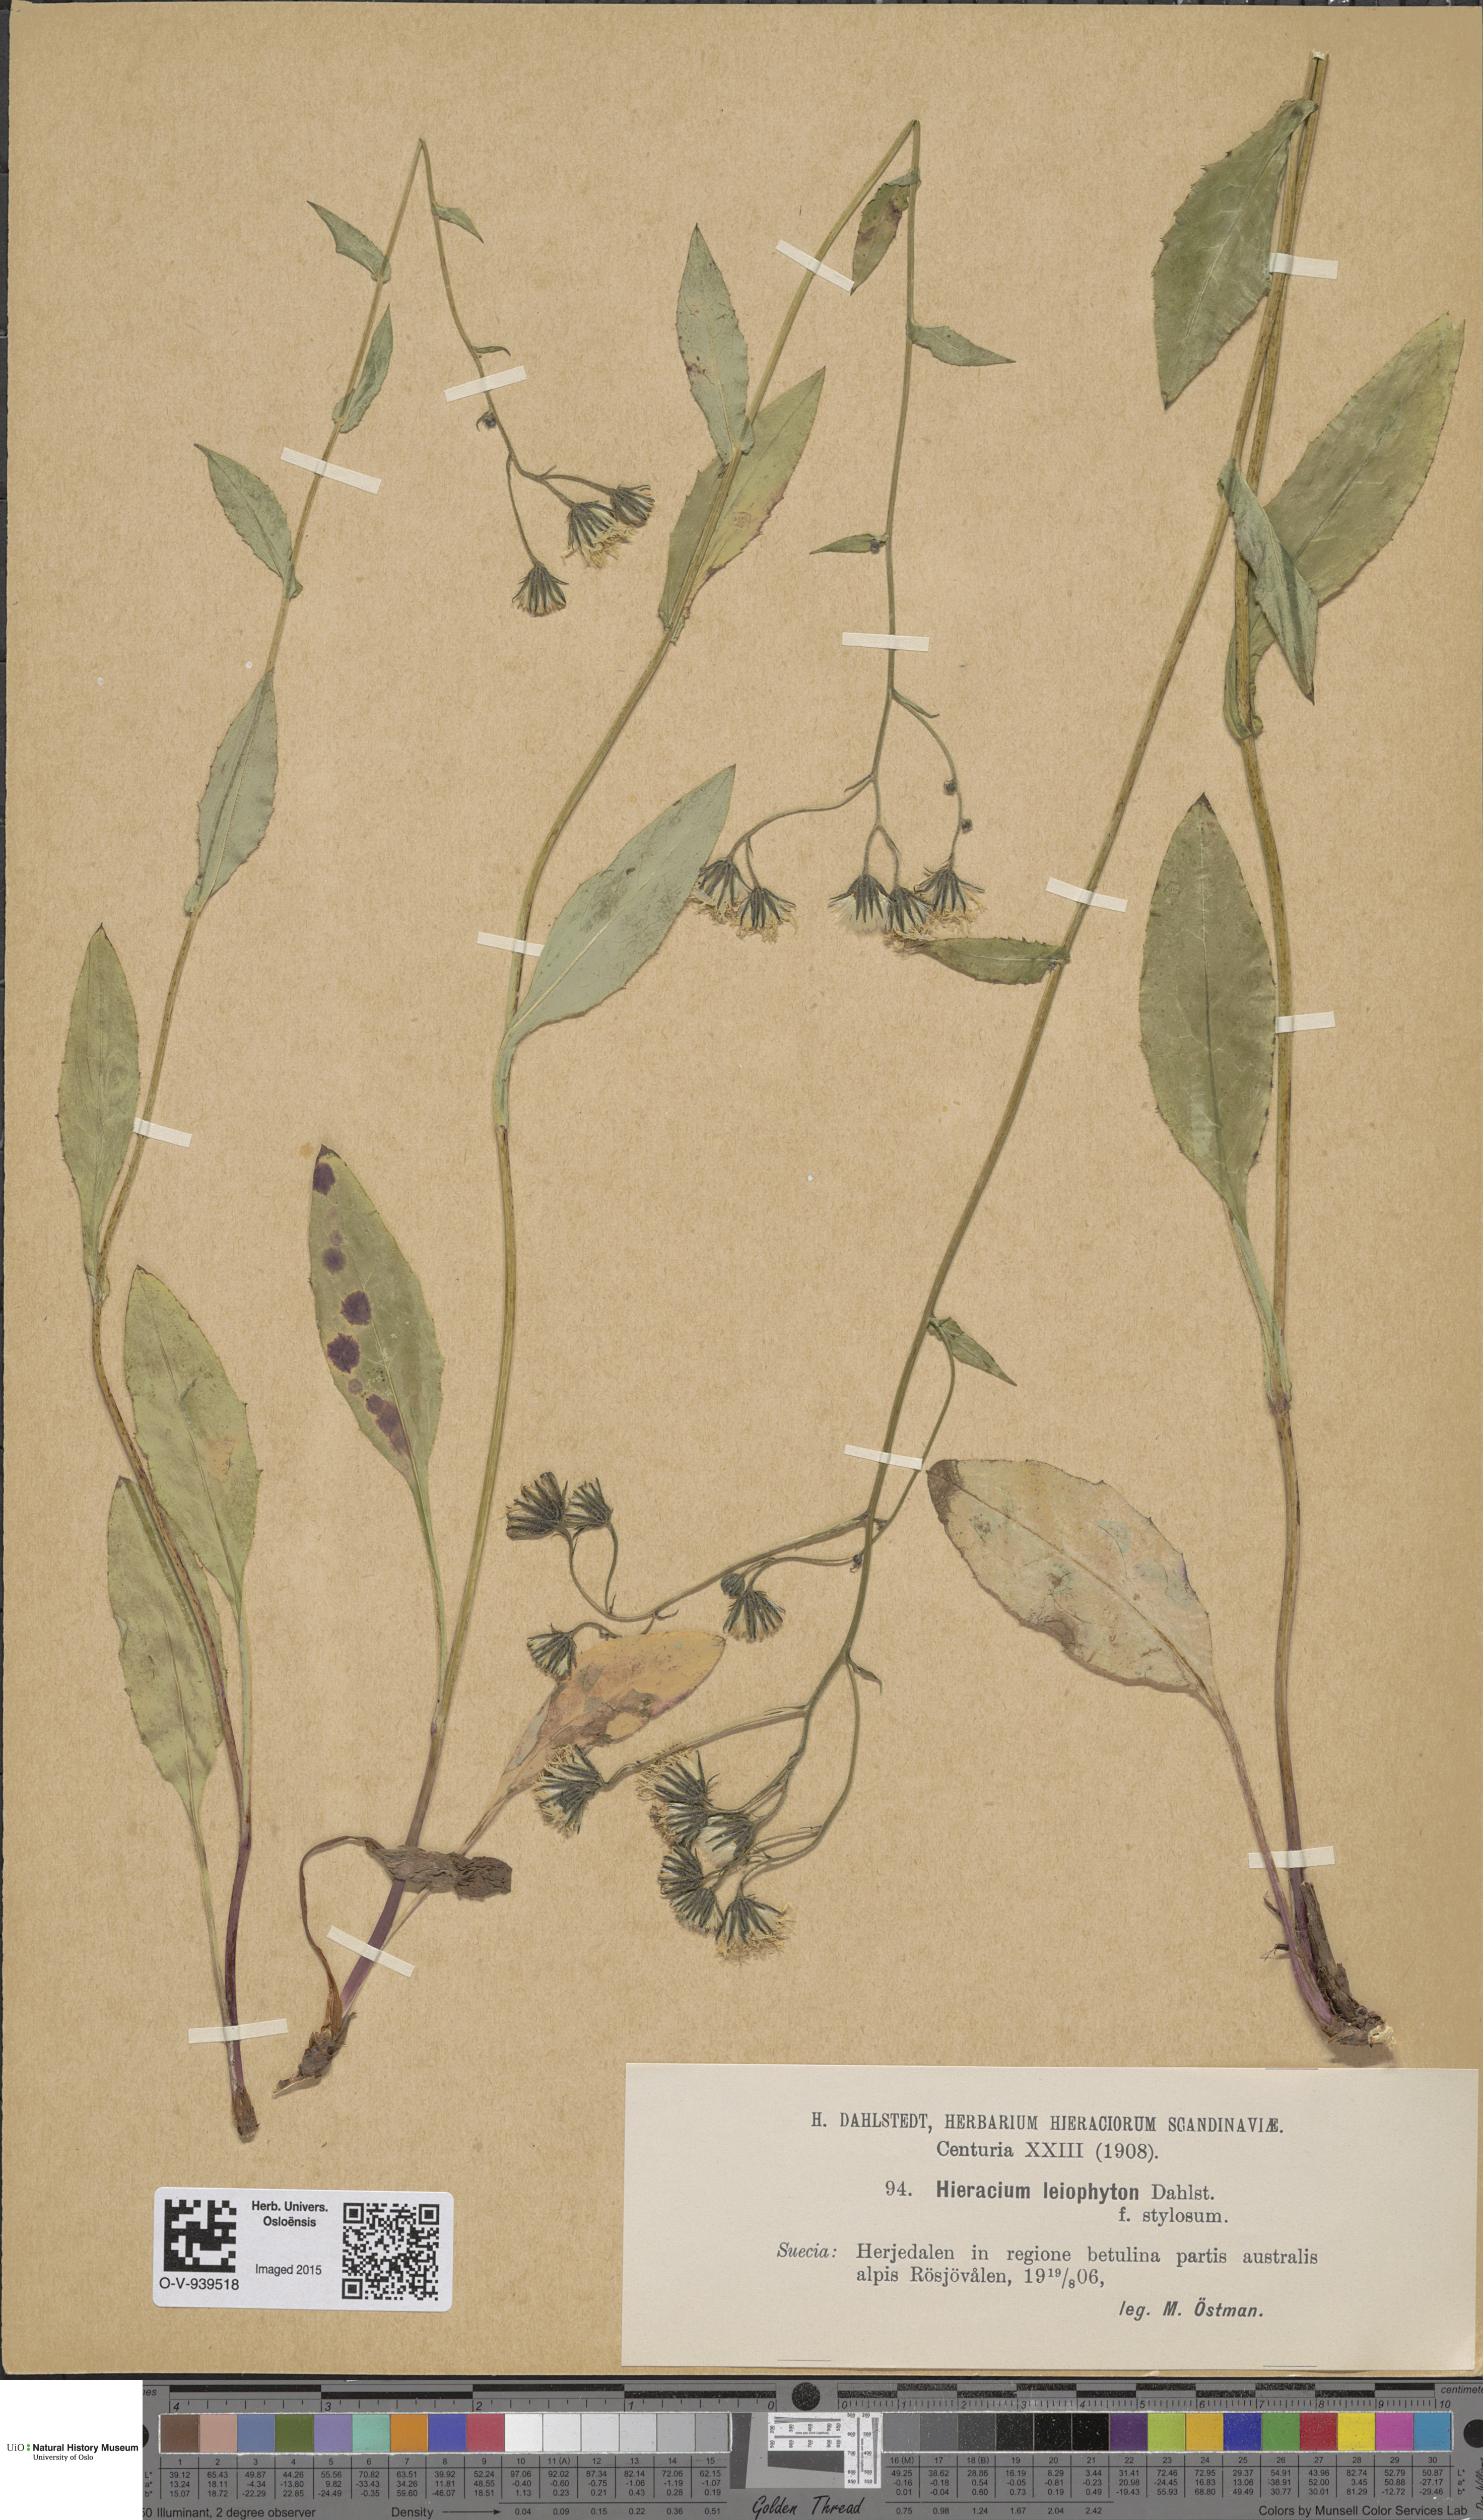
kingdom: Plantae
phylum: Tracheophyta
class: Magnoliopsida
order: Asterales
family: Asteraceae
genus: Hieracium
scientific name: Hieracium dovrense
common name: Dovre hawkweed
